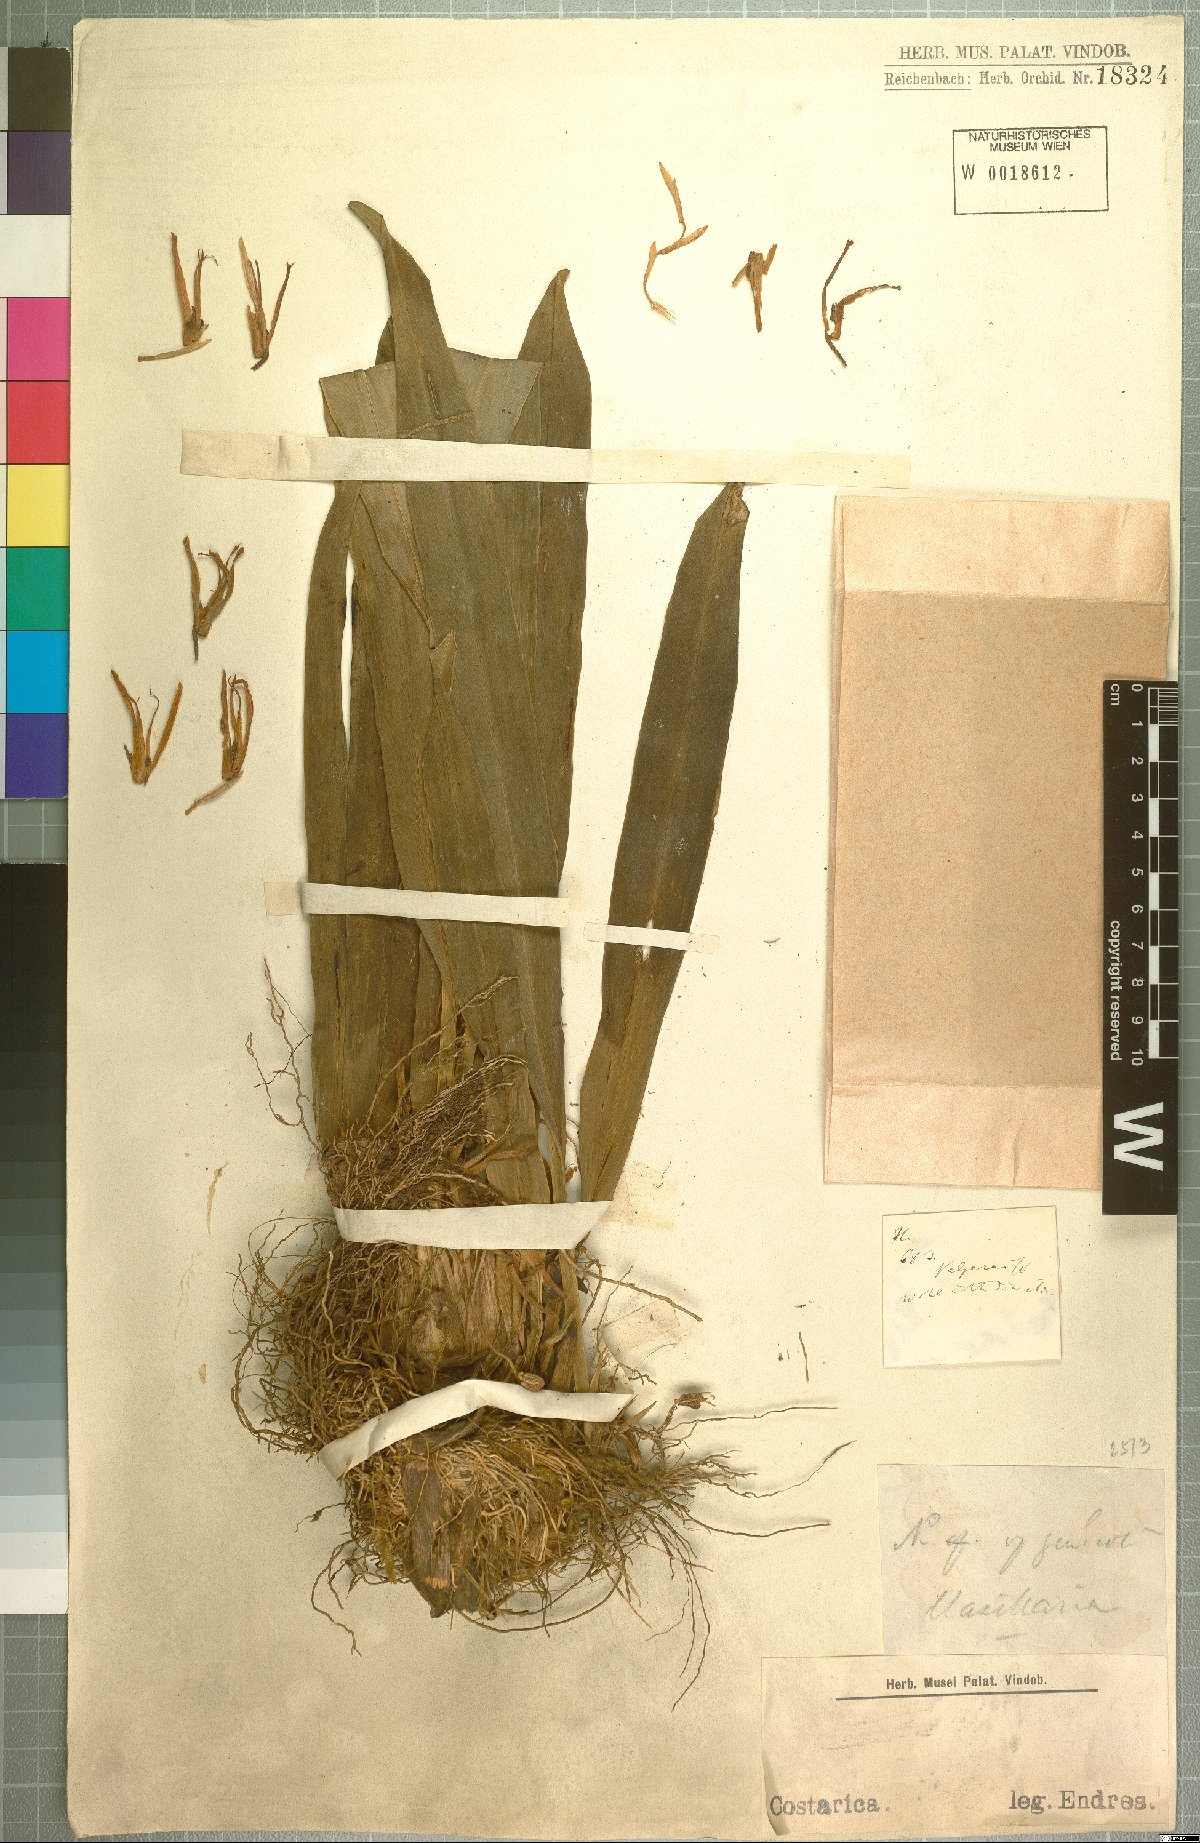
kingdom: Plantae
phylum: Tracheophyta
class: Liliopsida
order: Asparagales
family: Orchidaceae
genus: Maxillaria
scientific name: Maxillaria
